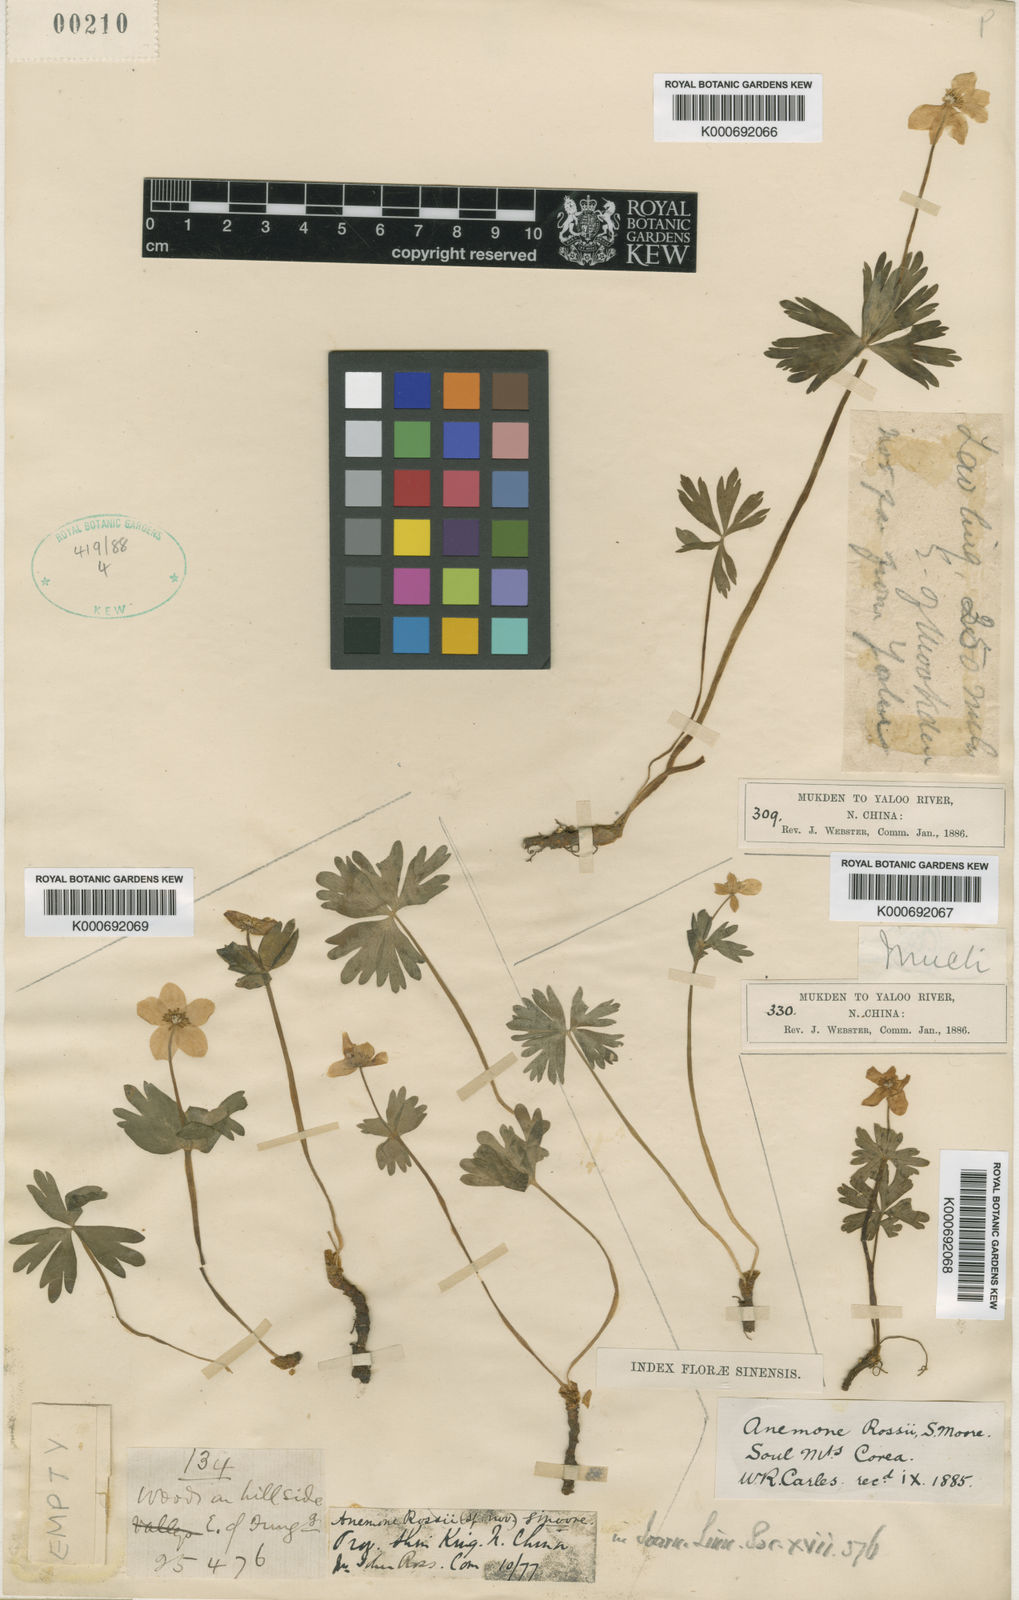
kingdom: Plantae
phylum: Tracheophyta
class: Magnoliopsida
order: Ranunculales
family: Ranunculaceae
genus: Anemone
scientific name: Anemone rossii
